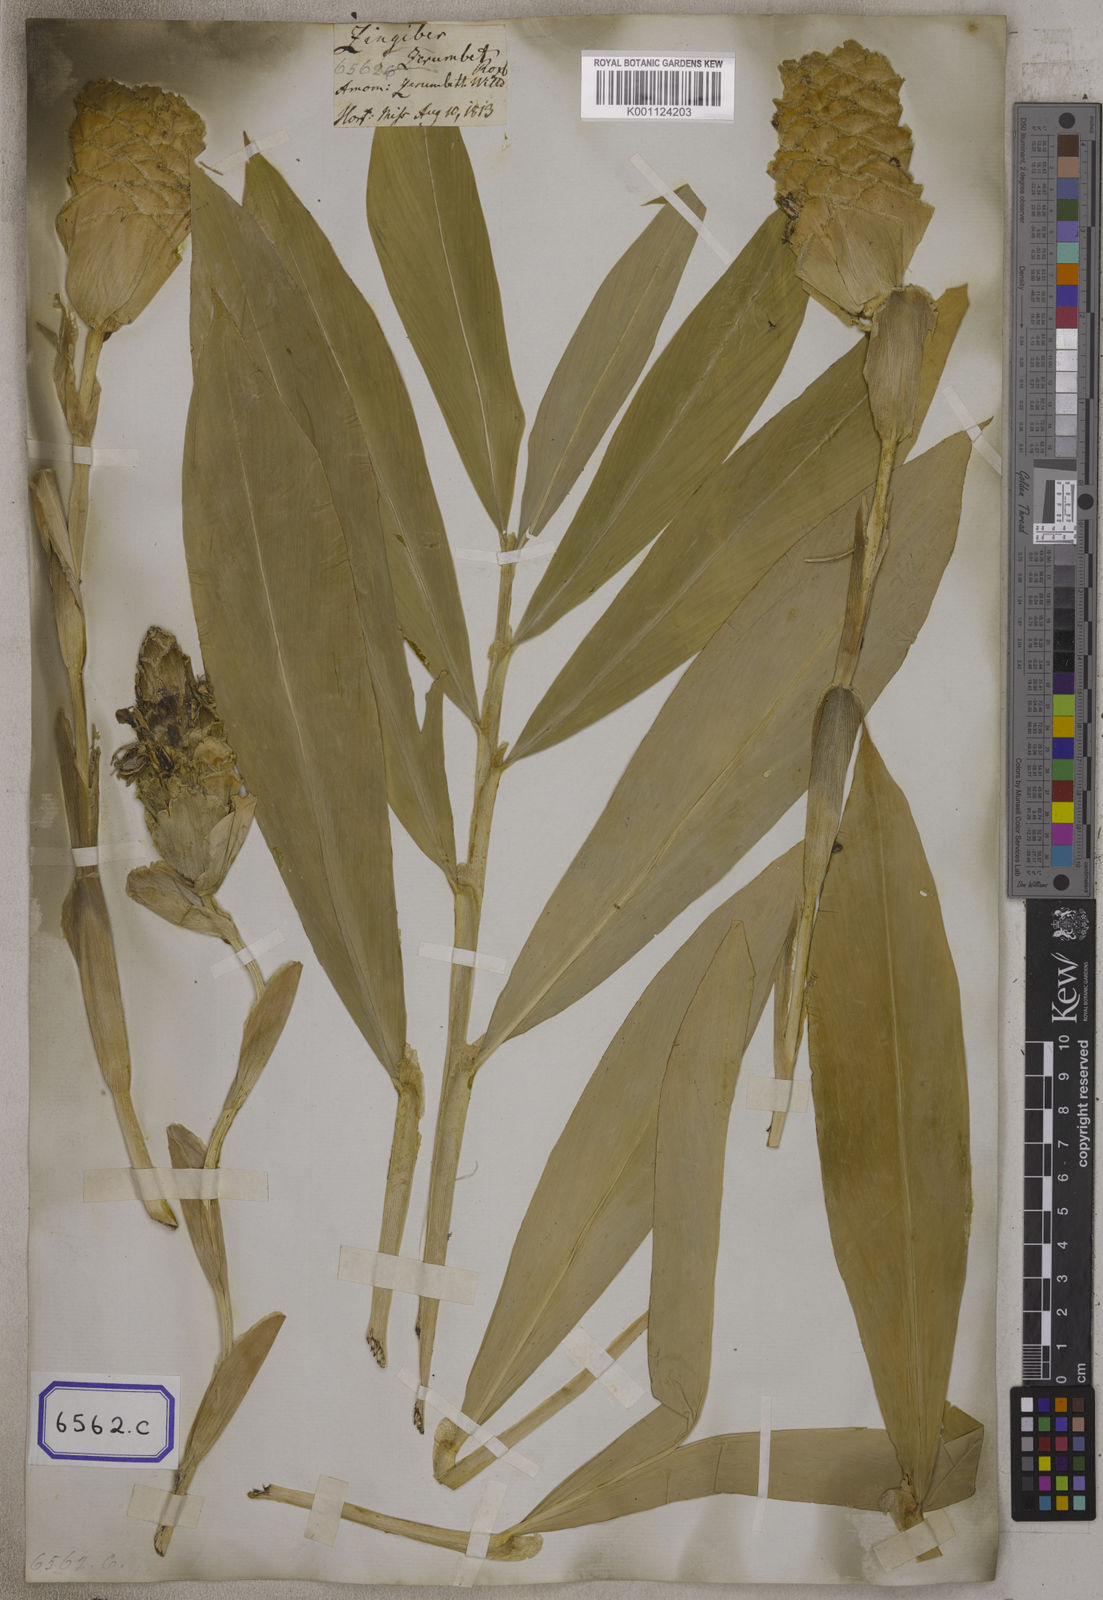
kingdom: Plantae
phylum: Tracheophyta
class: Liliopsida
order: Zingiberales
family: Zingiberaceae
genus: Zingiber
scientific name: Zingiber zerumbet
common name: Bitter ginger
